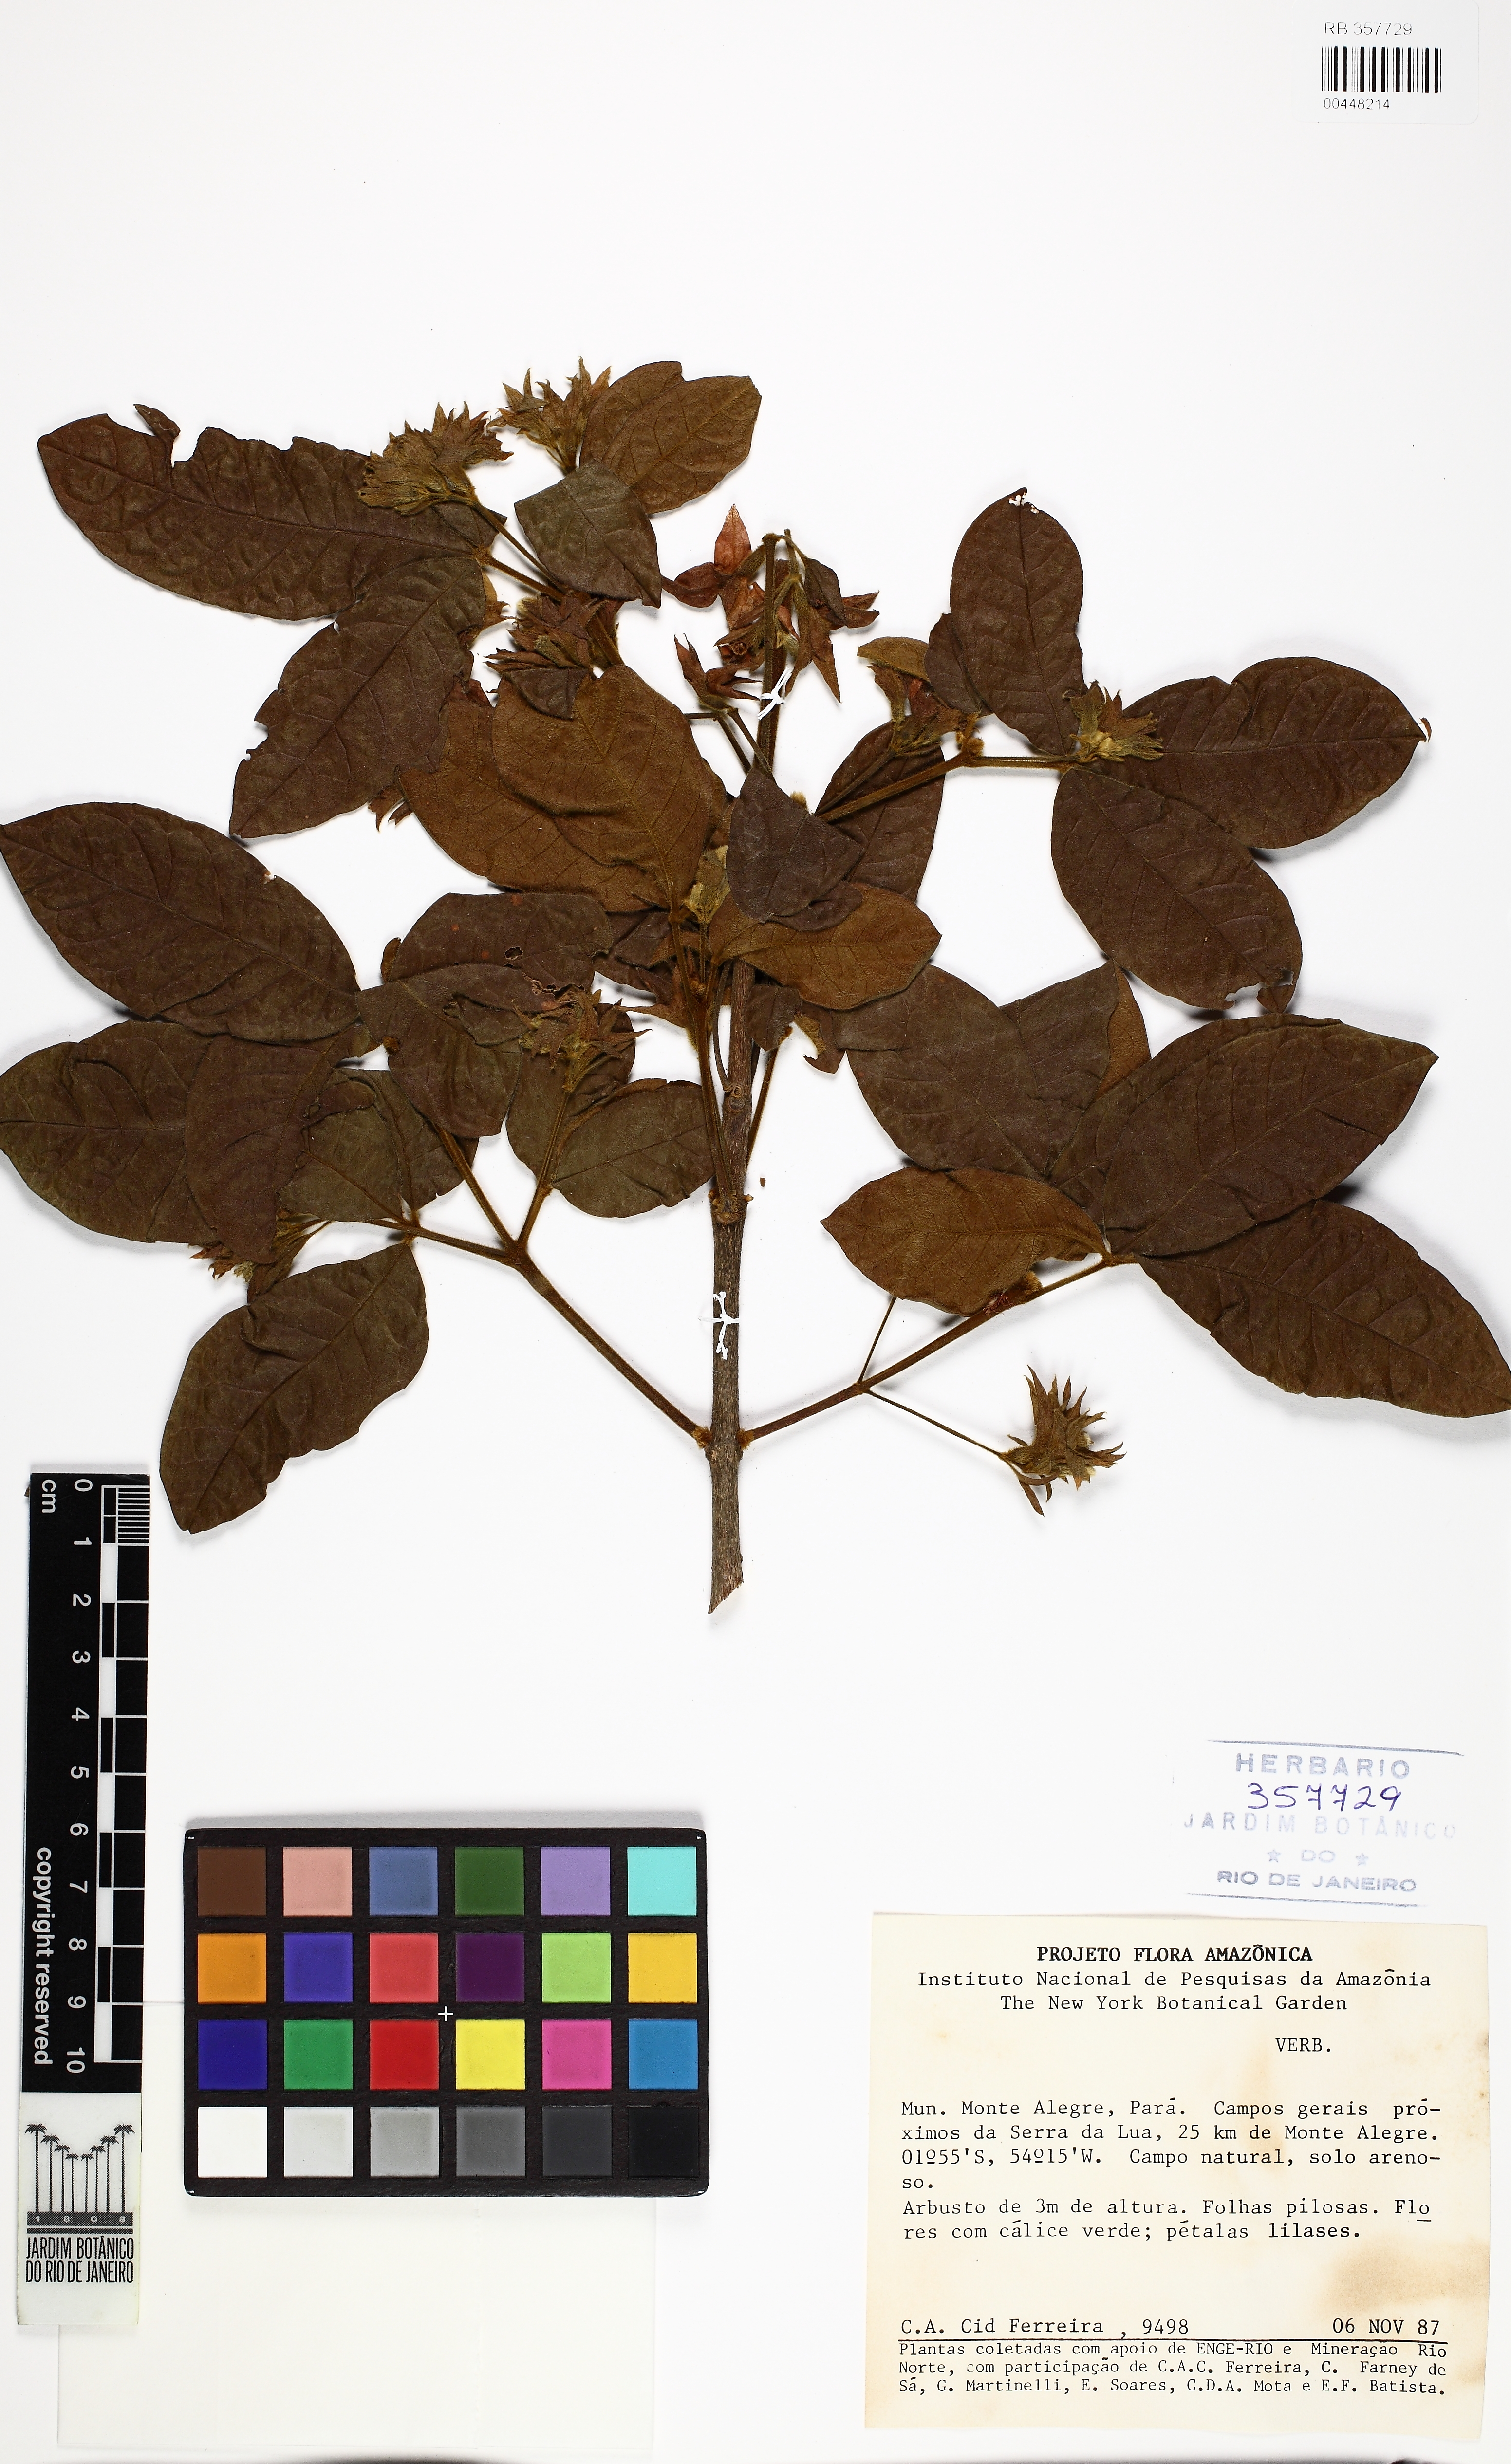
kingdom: Plantae
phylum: Tracheophyta
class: Magnoliopsida
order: Lamiales
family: Verbenaceae
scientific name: Verbenaceae
